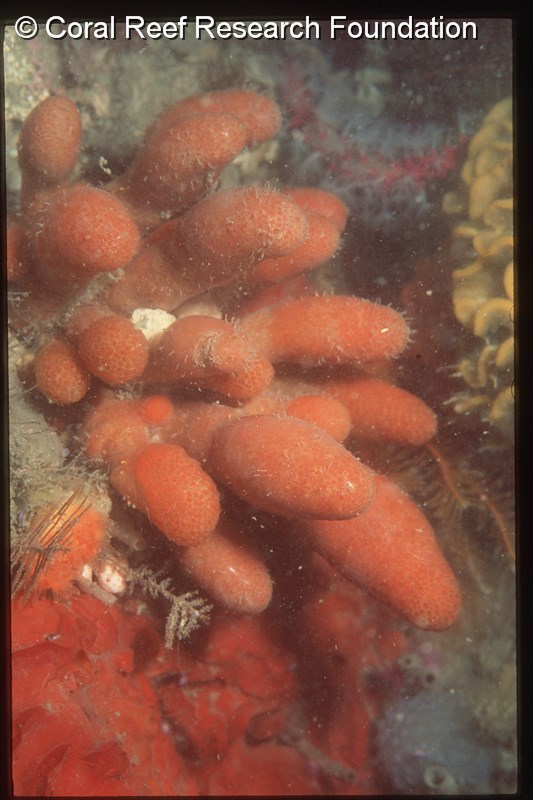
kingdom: Animalia
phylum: Chordata
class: Ascidiacea
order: Aplousobranchia
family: Pseudodistomidae
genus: Pseudodistoma
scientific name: Pseudodistoma africanum
